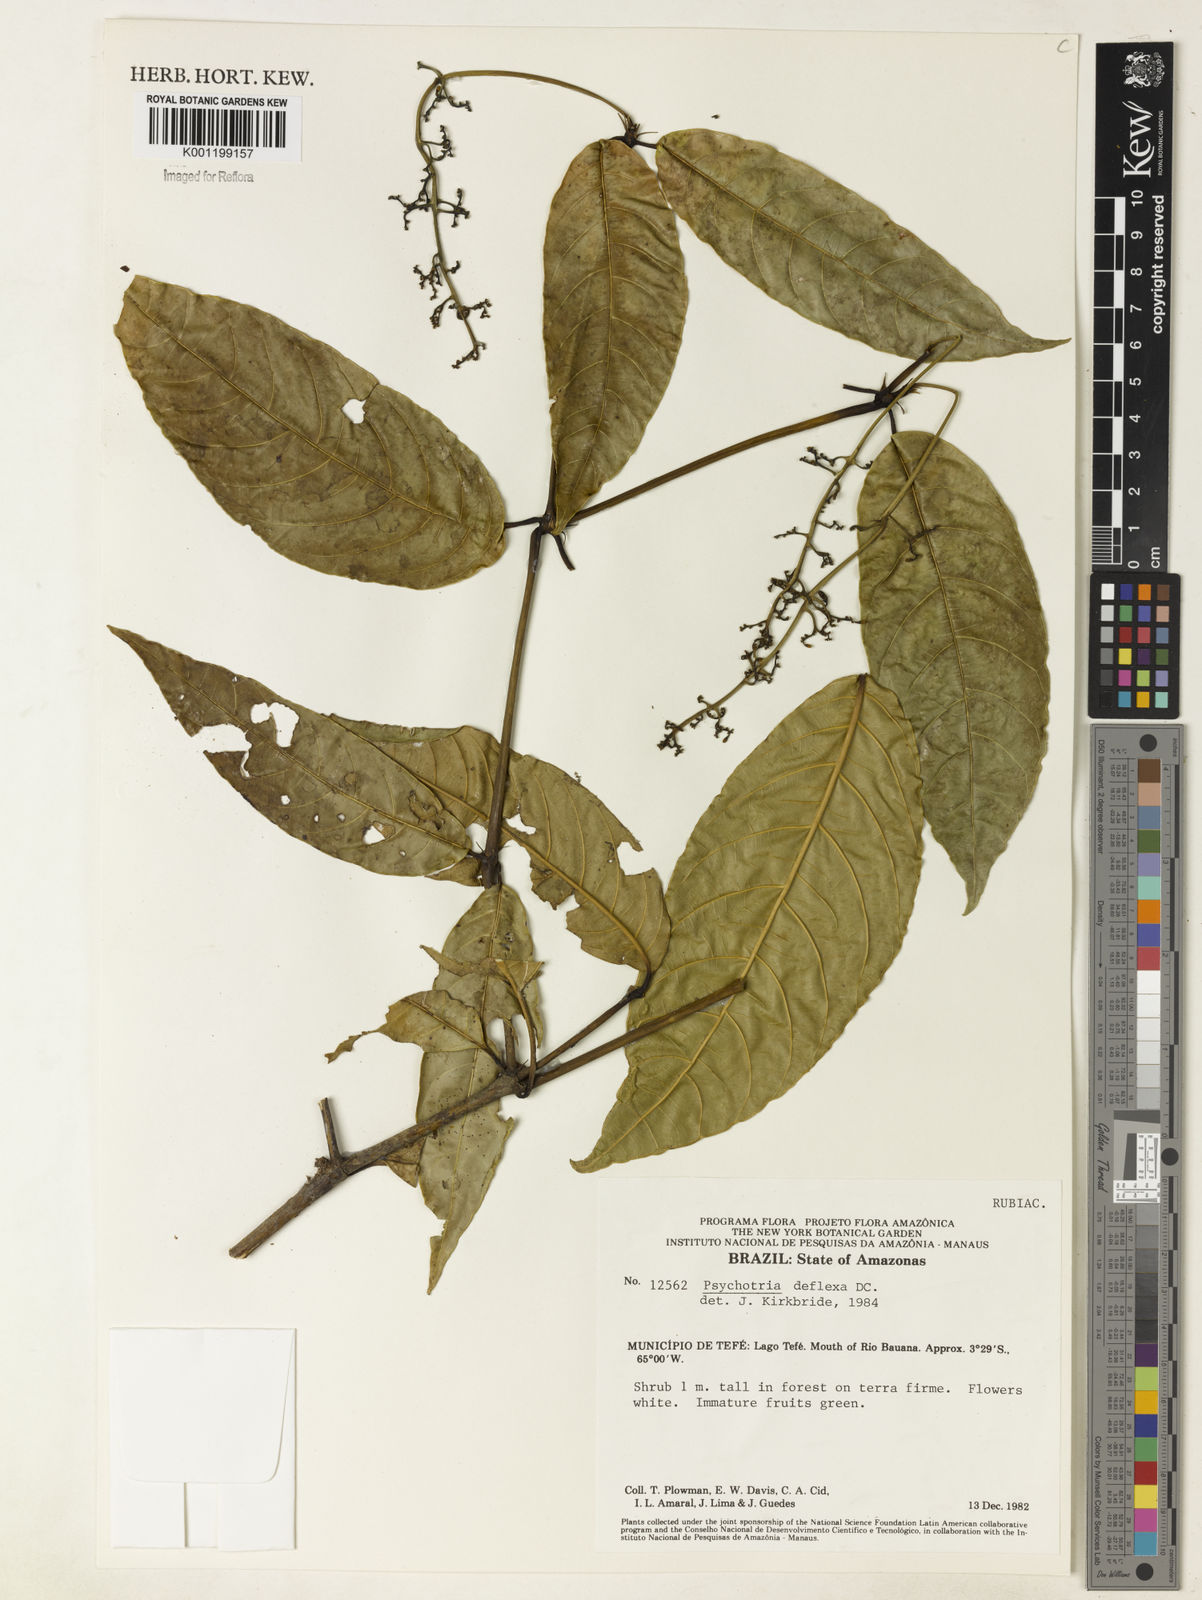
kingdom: Plantae
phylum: Tracheophyta
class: Magnoliopsida
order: Gentianales
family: Rubiaceae
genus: Palicourea
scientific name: Palicourea deflexa
